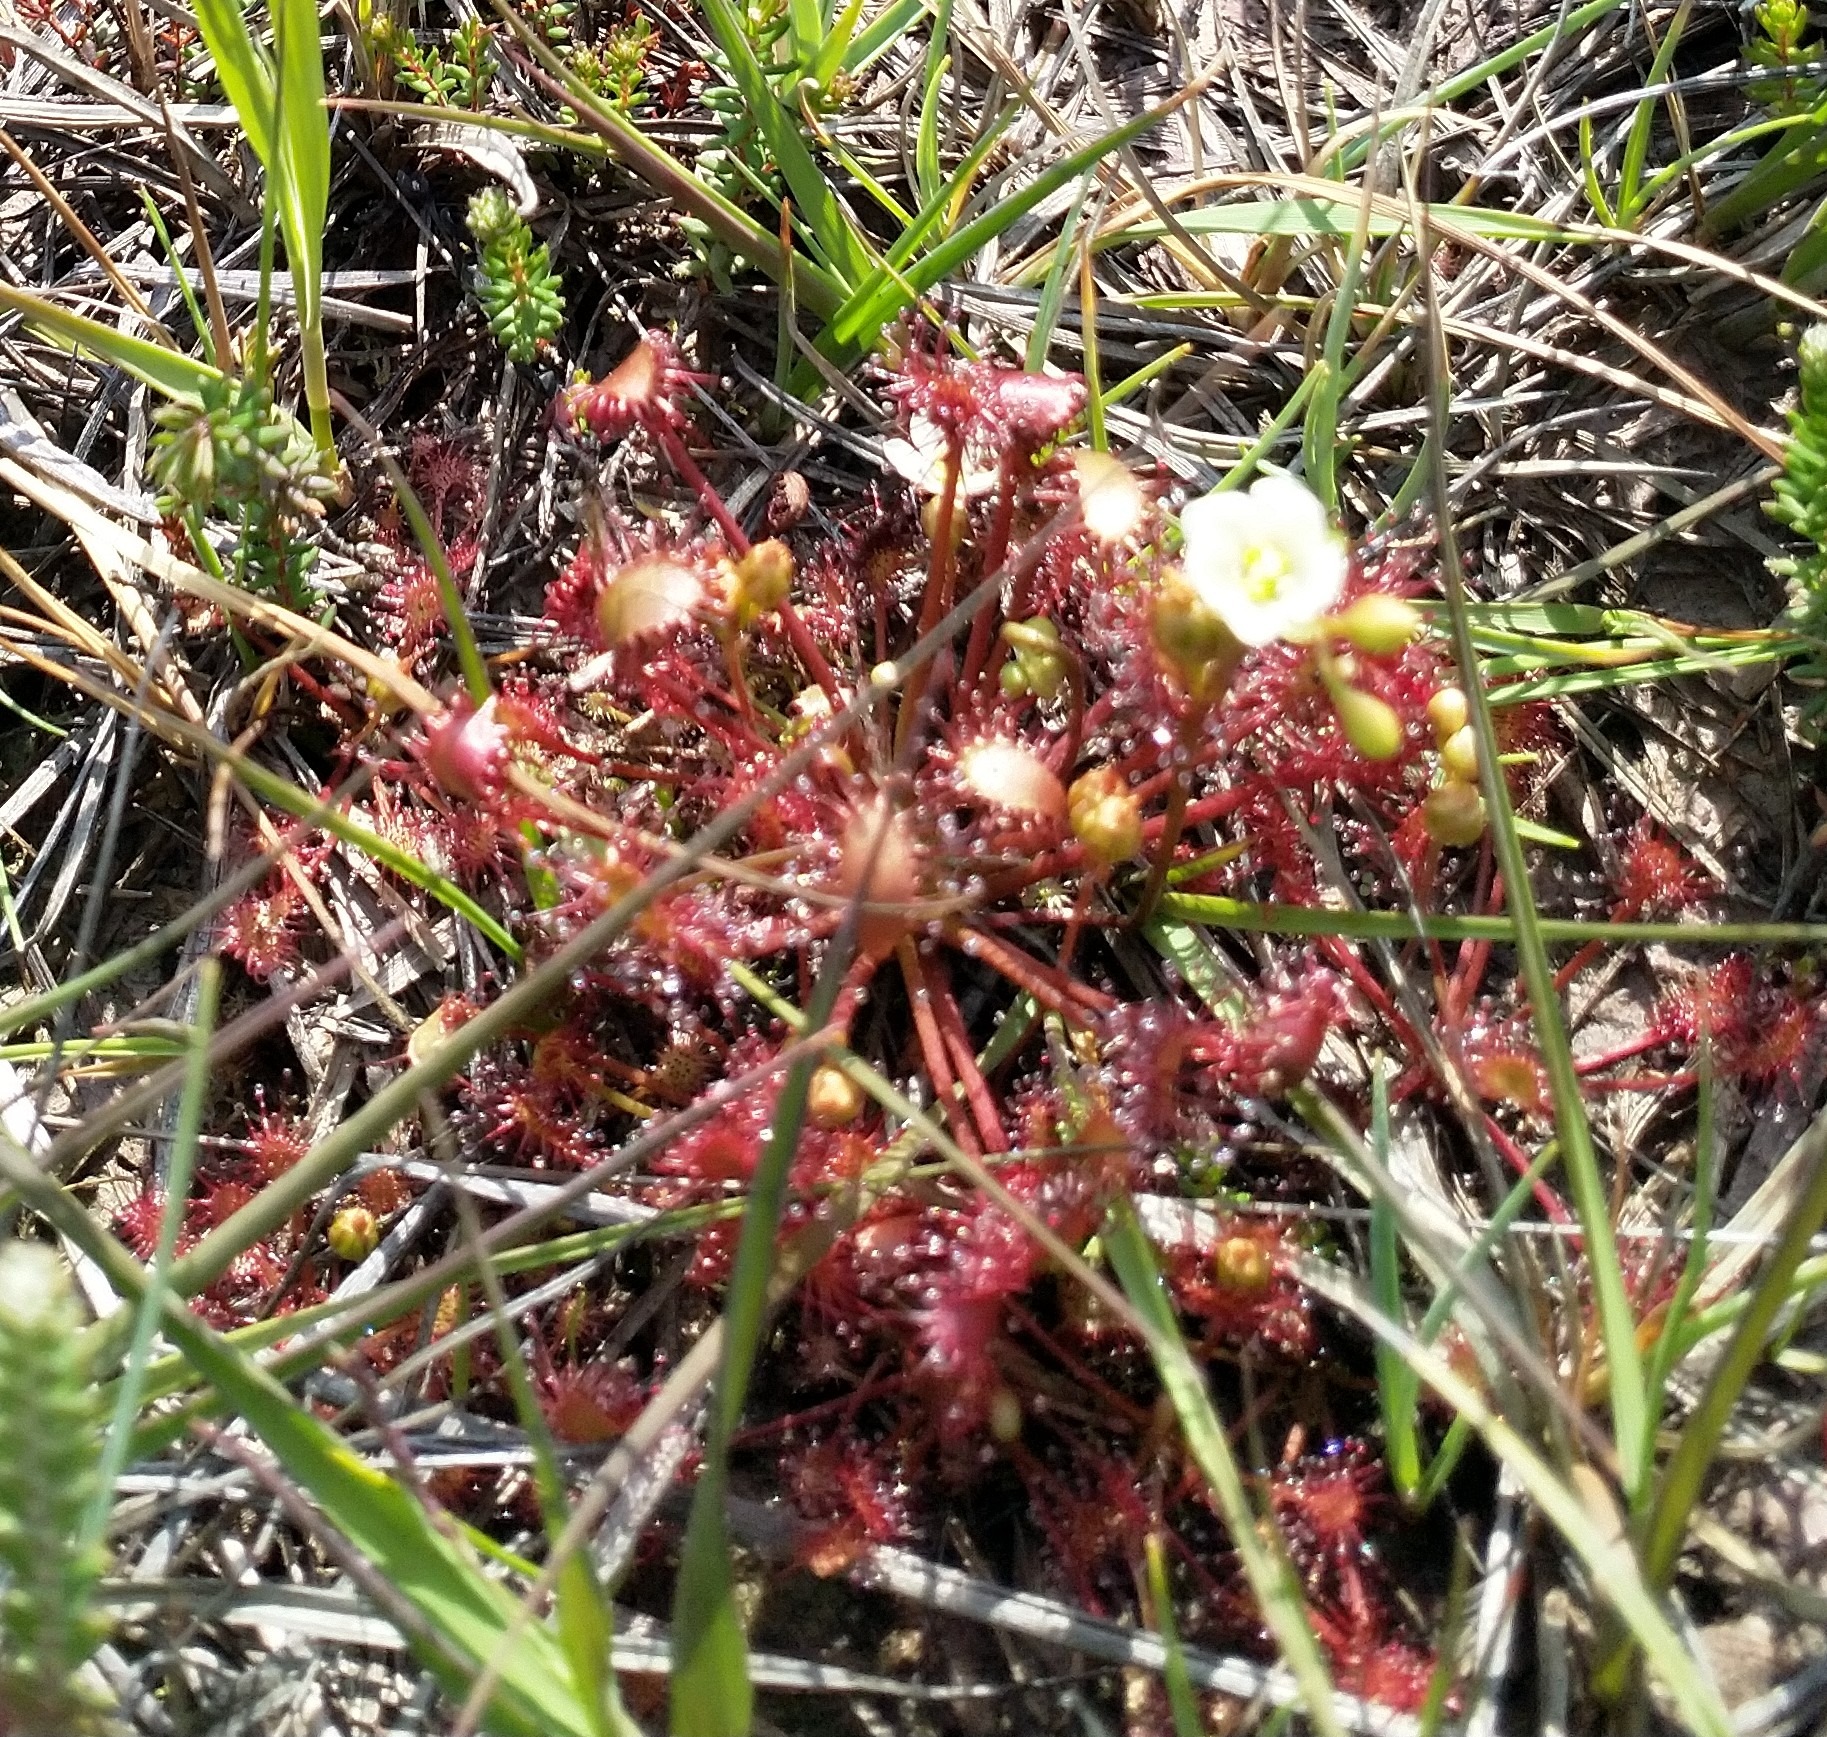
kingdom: Plantae
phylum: Tracheophyta
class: Magnoliopsida
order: Caryophyllales
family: Droseraceae
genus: Drosera
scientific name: Drosera intermedia
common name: Liden soldug
